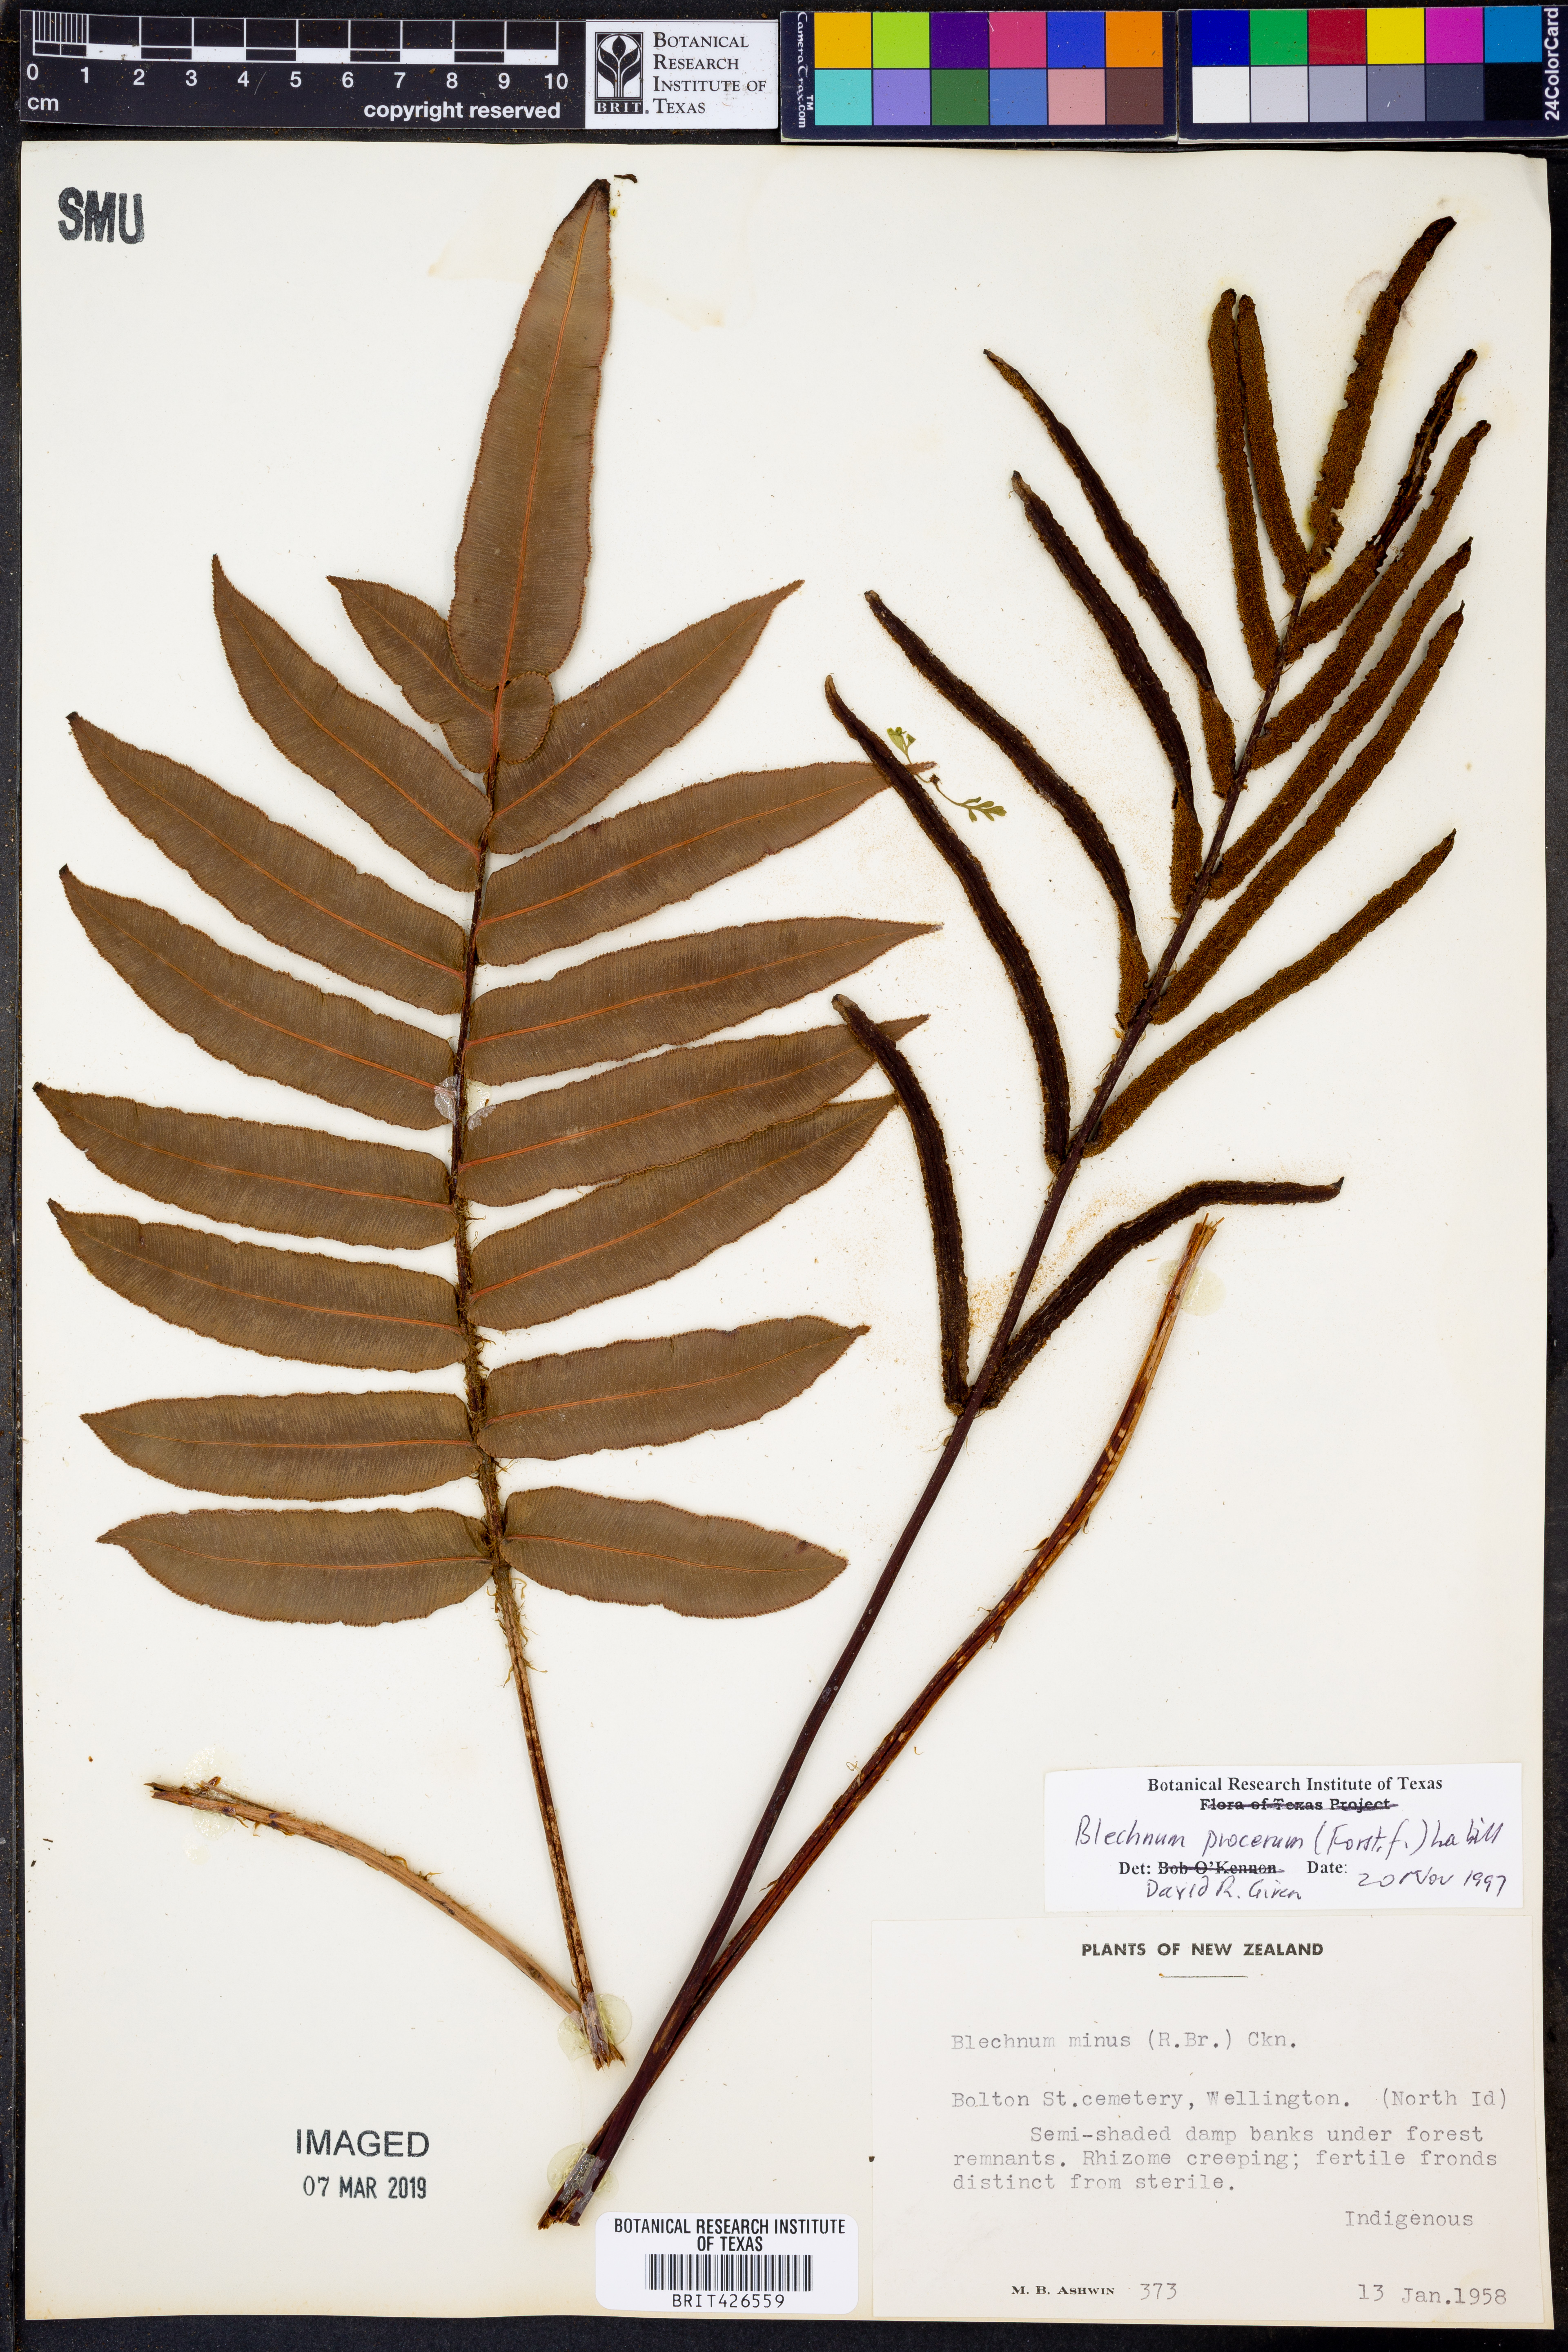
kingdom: Plantae
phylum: Tracheophyta
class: Polypodiopsida
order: Polypodiales
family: Blechnaceae
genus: Parablechnum
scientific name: Parablechnum procerum
